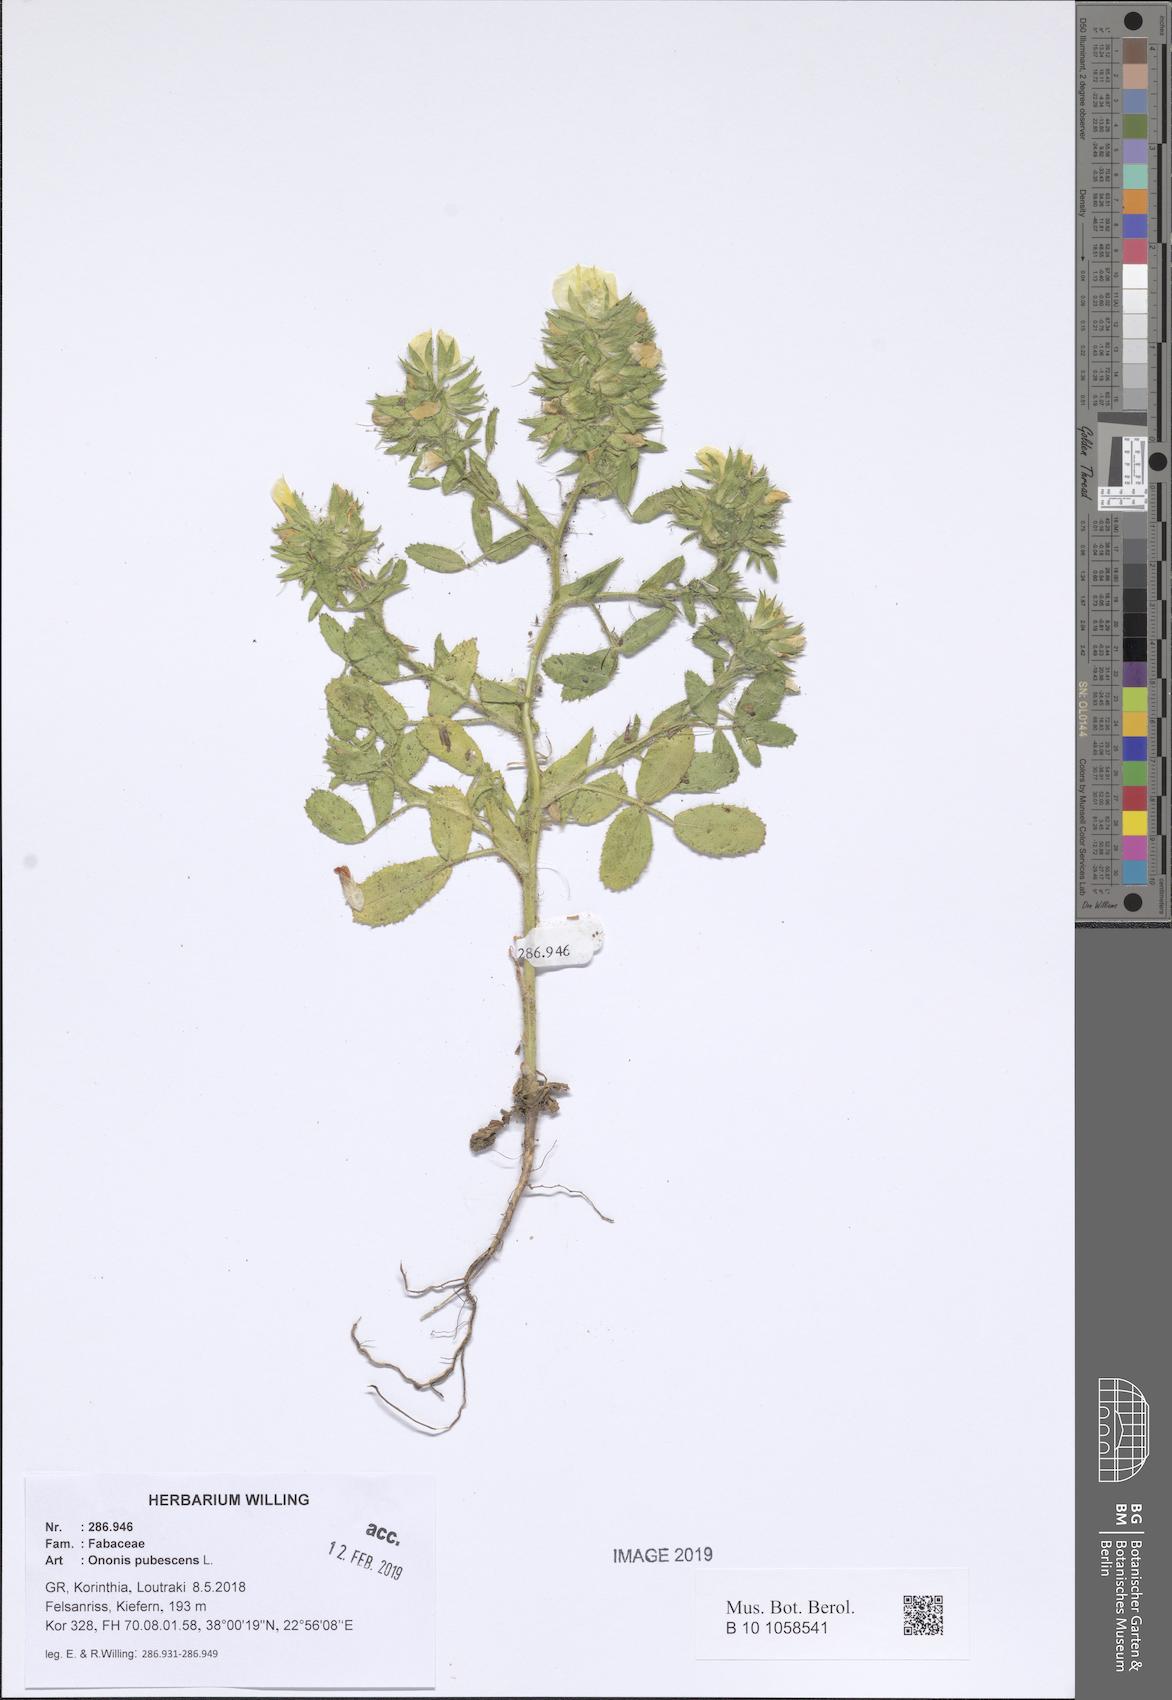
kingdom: Plantae
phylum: Tracheophyta
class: Magnoliopsida
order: Fabales
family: Fabaceae
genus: Ononis
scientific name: Ononis pubescens
